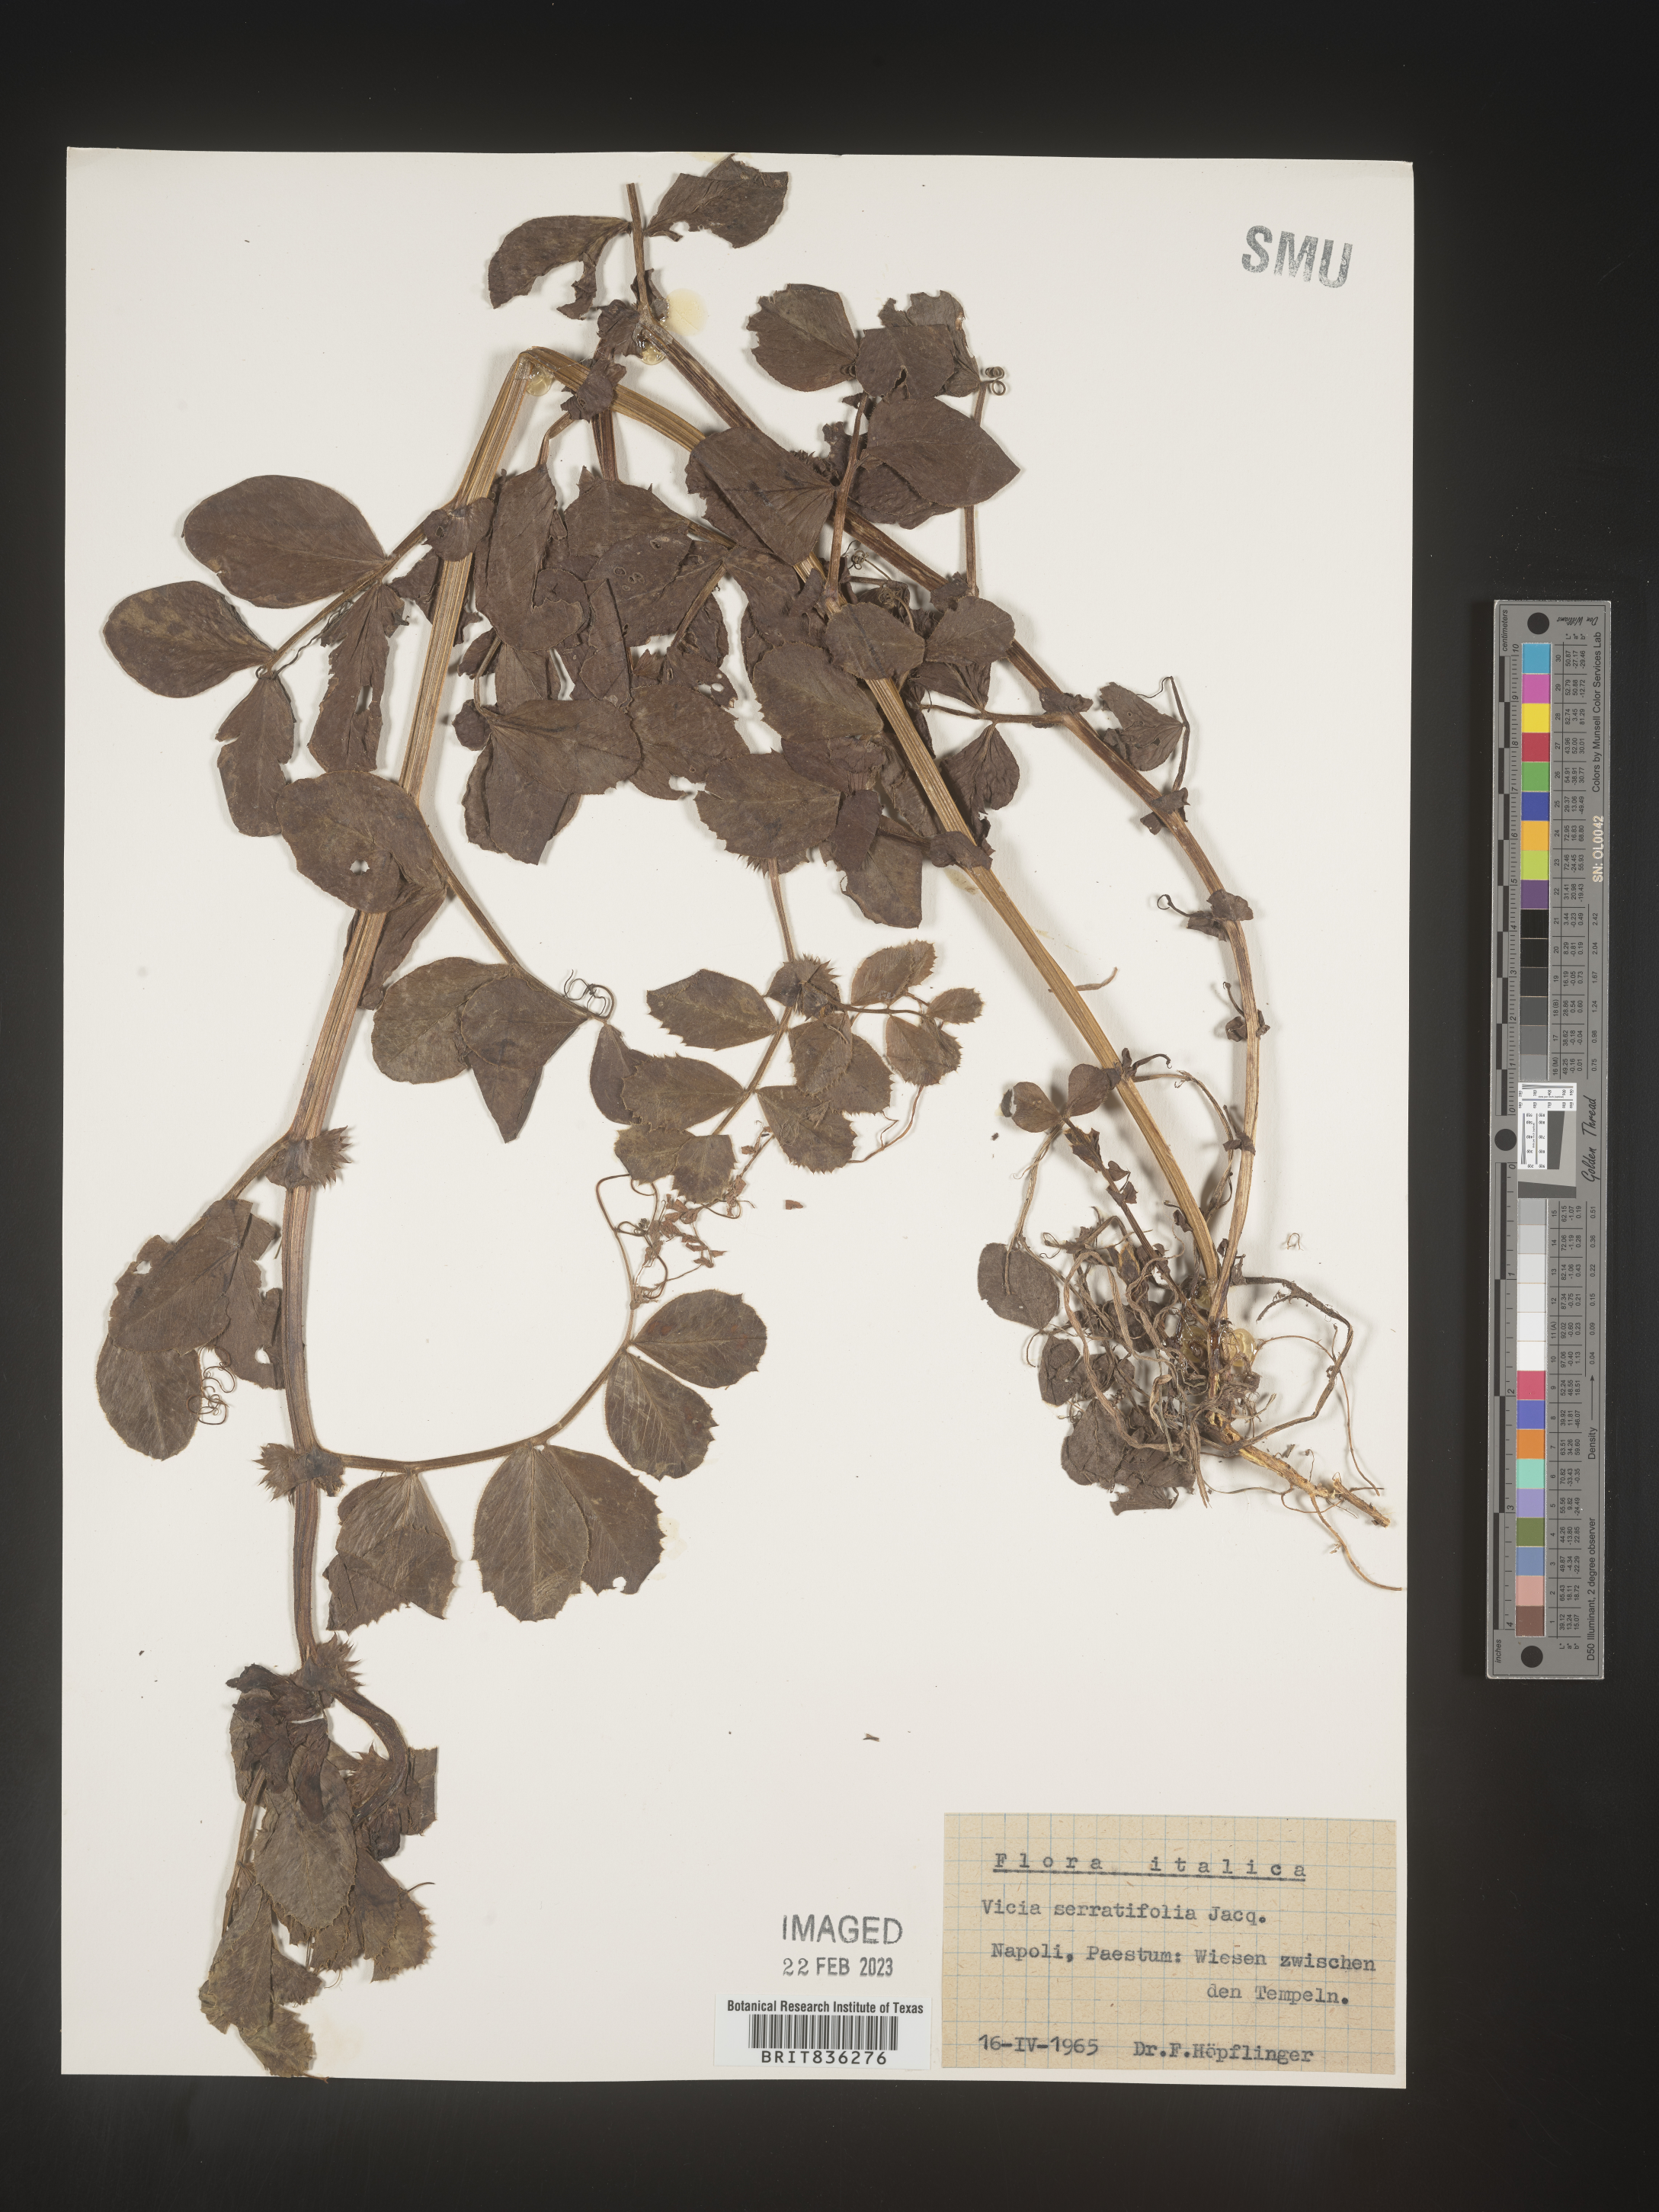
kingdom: Plantae
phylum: Tracheophyta
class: Magnoliopsida
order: Fabales
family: Fabaceae
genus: Vicia
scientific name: Vicia
